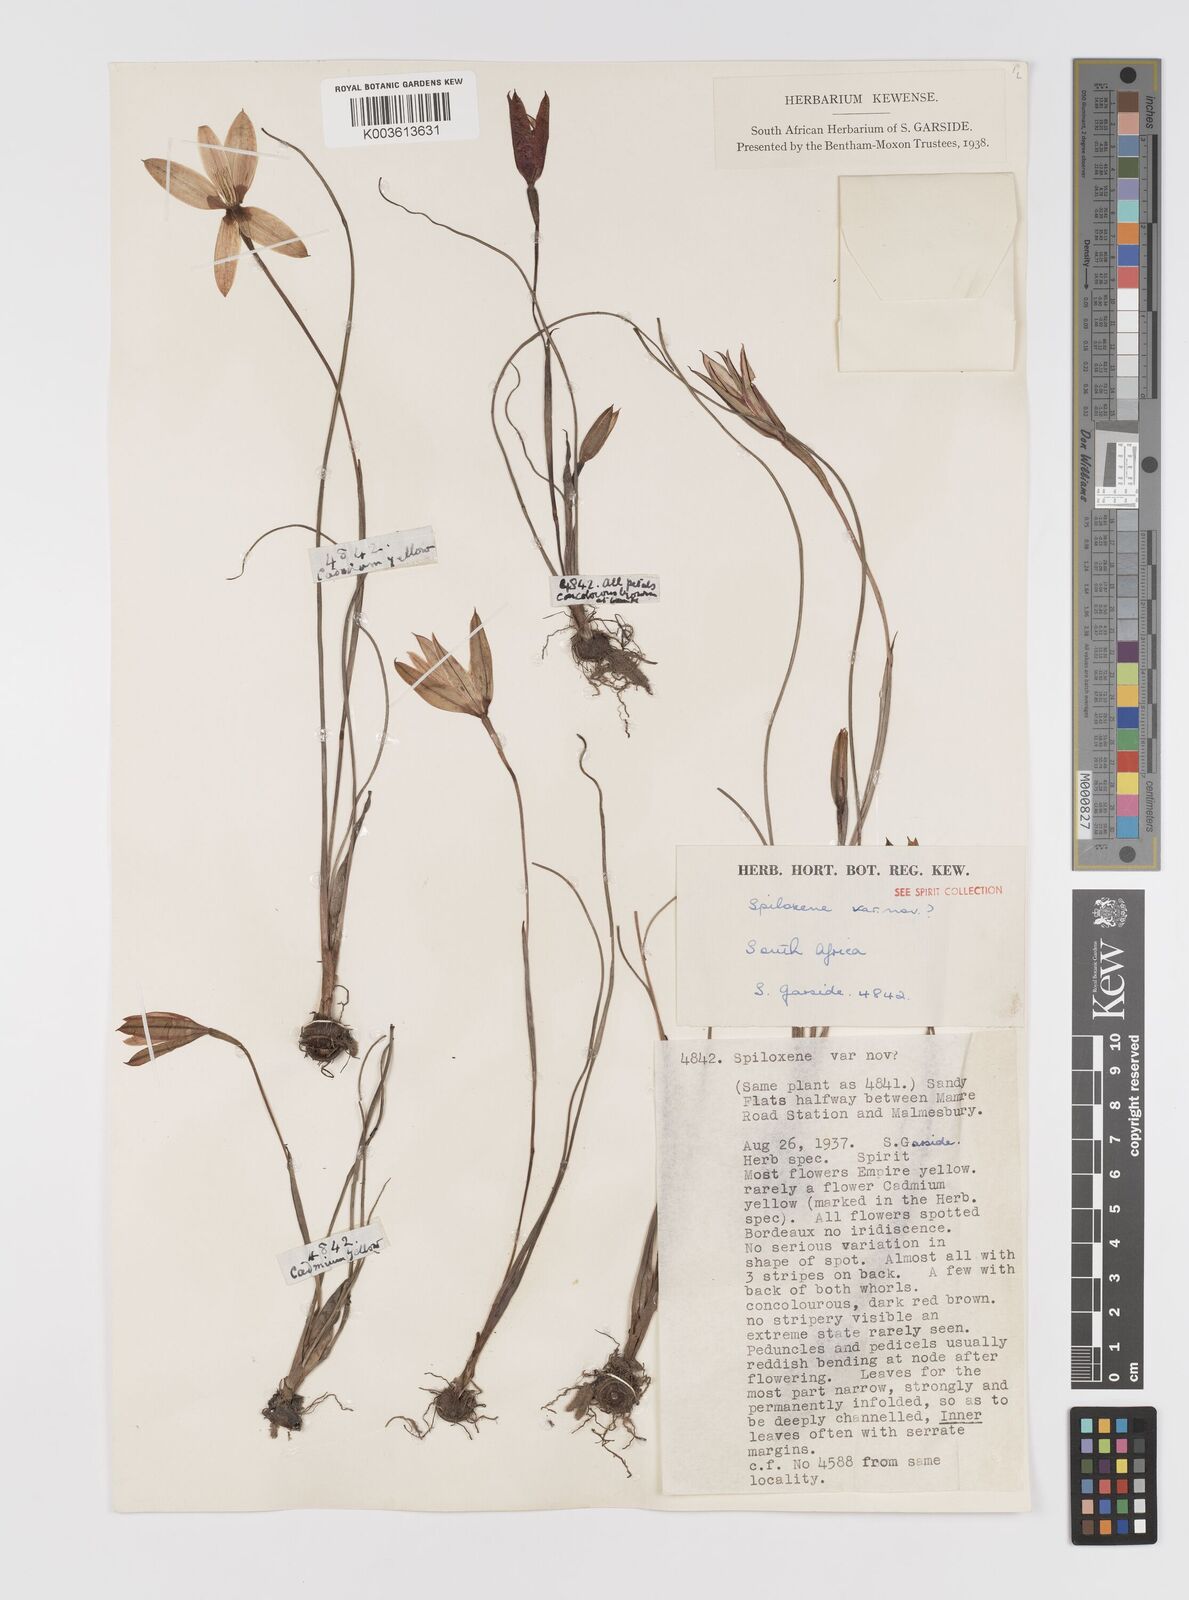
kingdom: Plantae
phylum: Tracheophyta
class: Liliopsida
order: Asparagales
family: Hypoxidaceae
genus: Pauridia
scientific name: Pauridia
